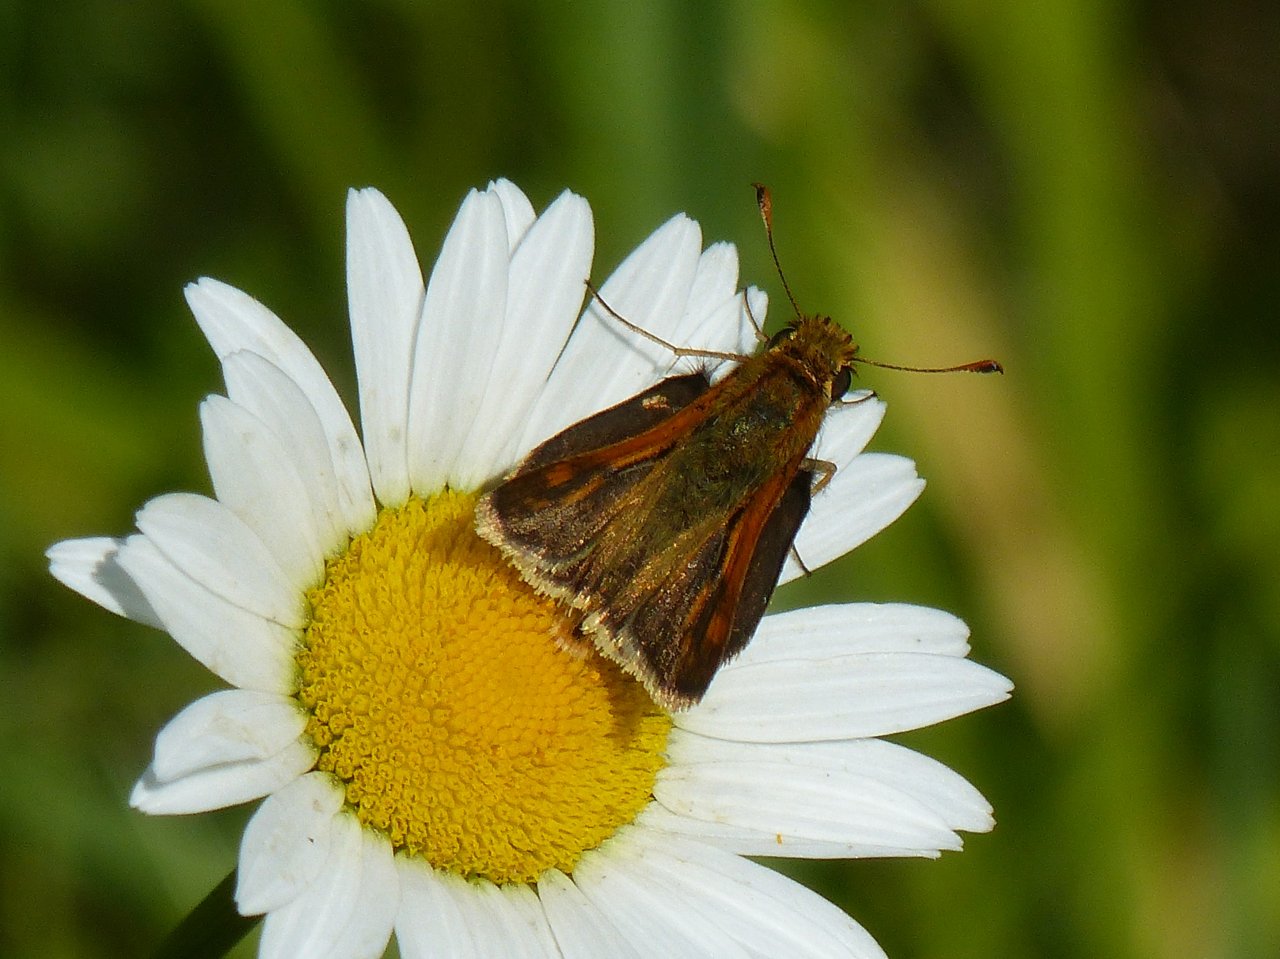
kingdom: Animalia
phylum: Arthropoda
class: Insecta
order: Lepidoptera
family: Hesperiidae
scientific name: Hesperiidae
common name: Skippers
